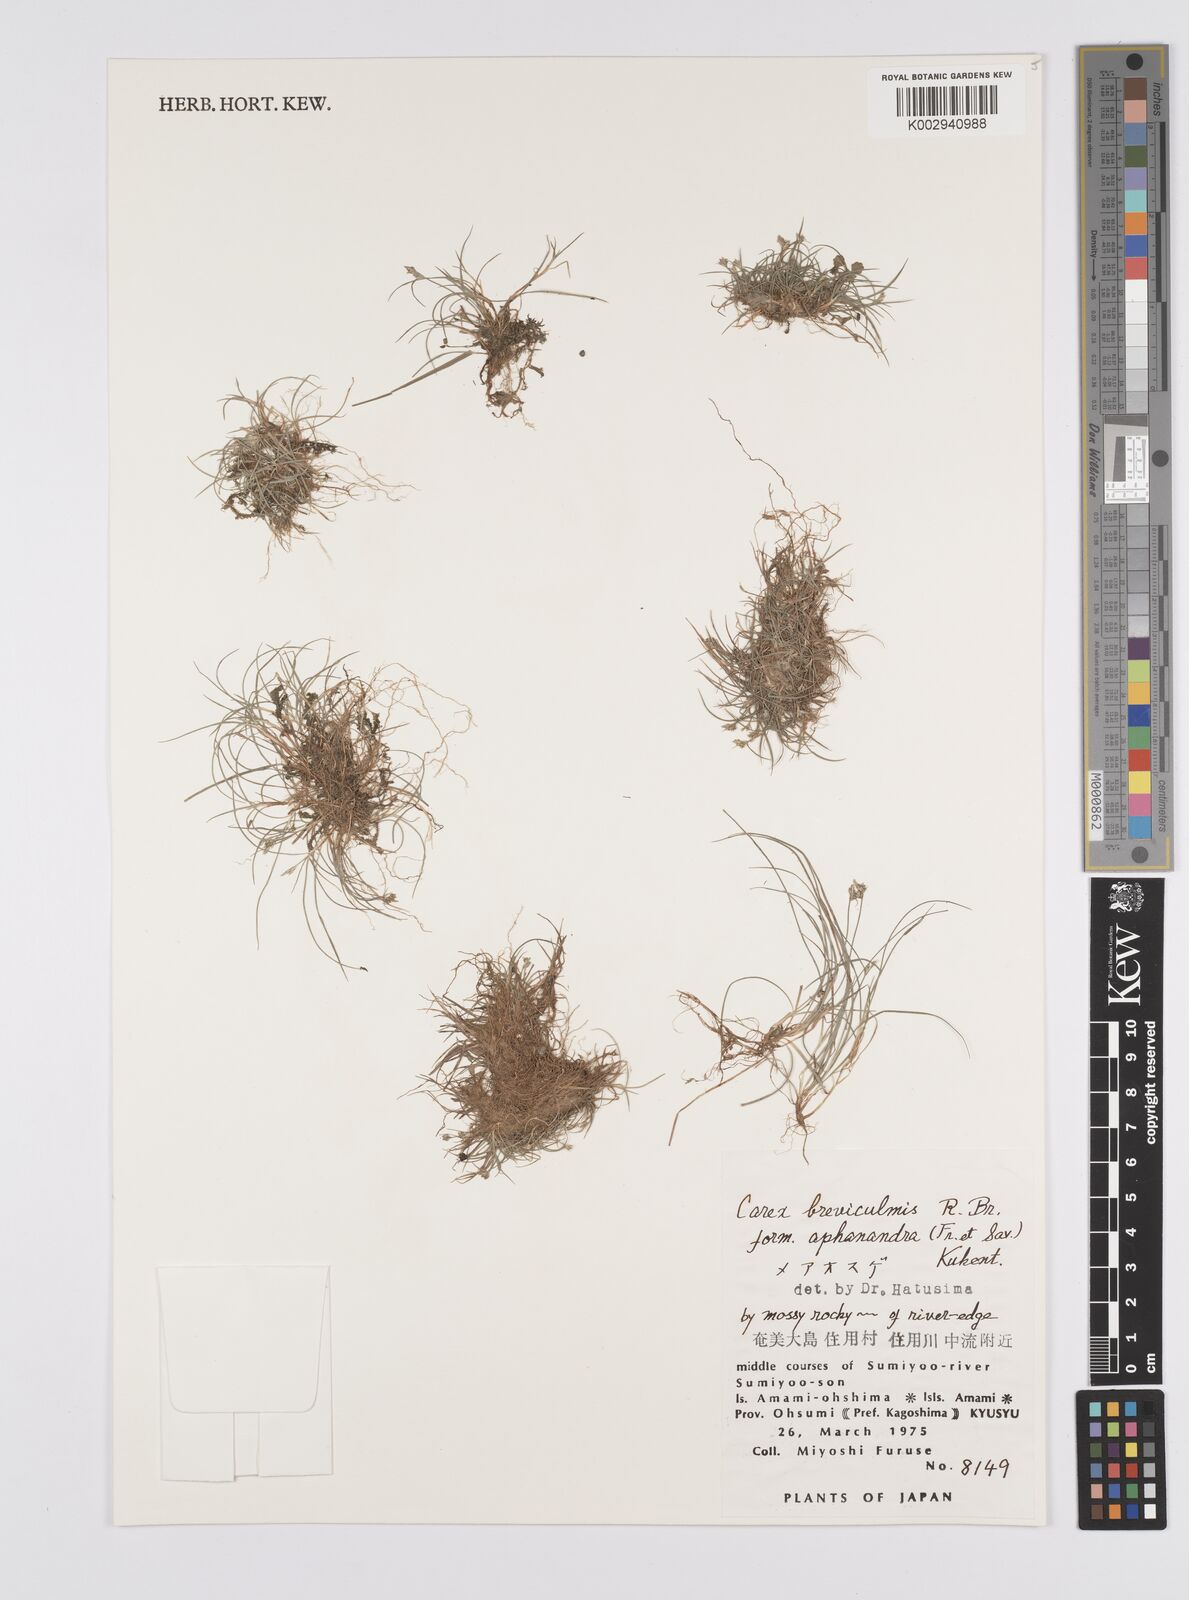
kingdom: Plantae
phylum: Tracheophyta
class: Liliopsida
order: Poales
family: Cyperaceae
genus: Carex
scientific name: Carex breviculmis
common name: Asian shortstem sedge
